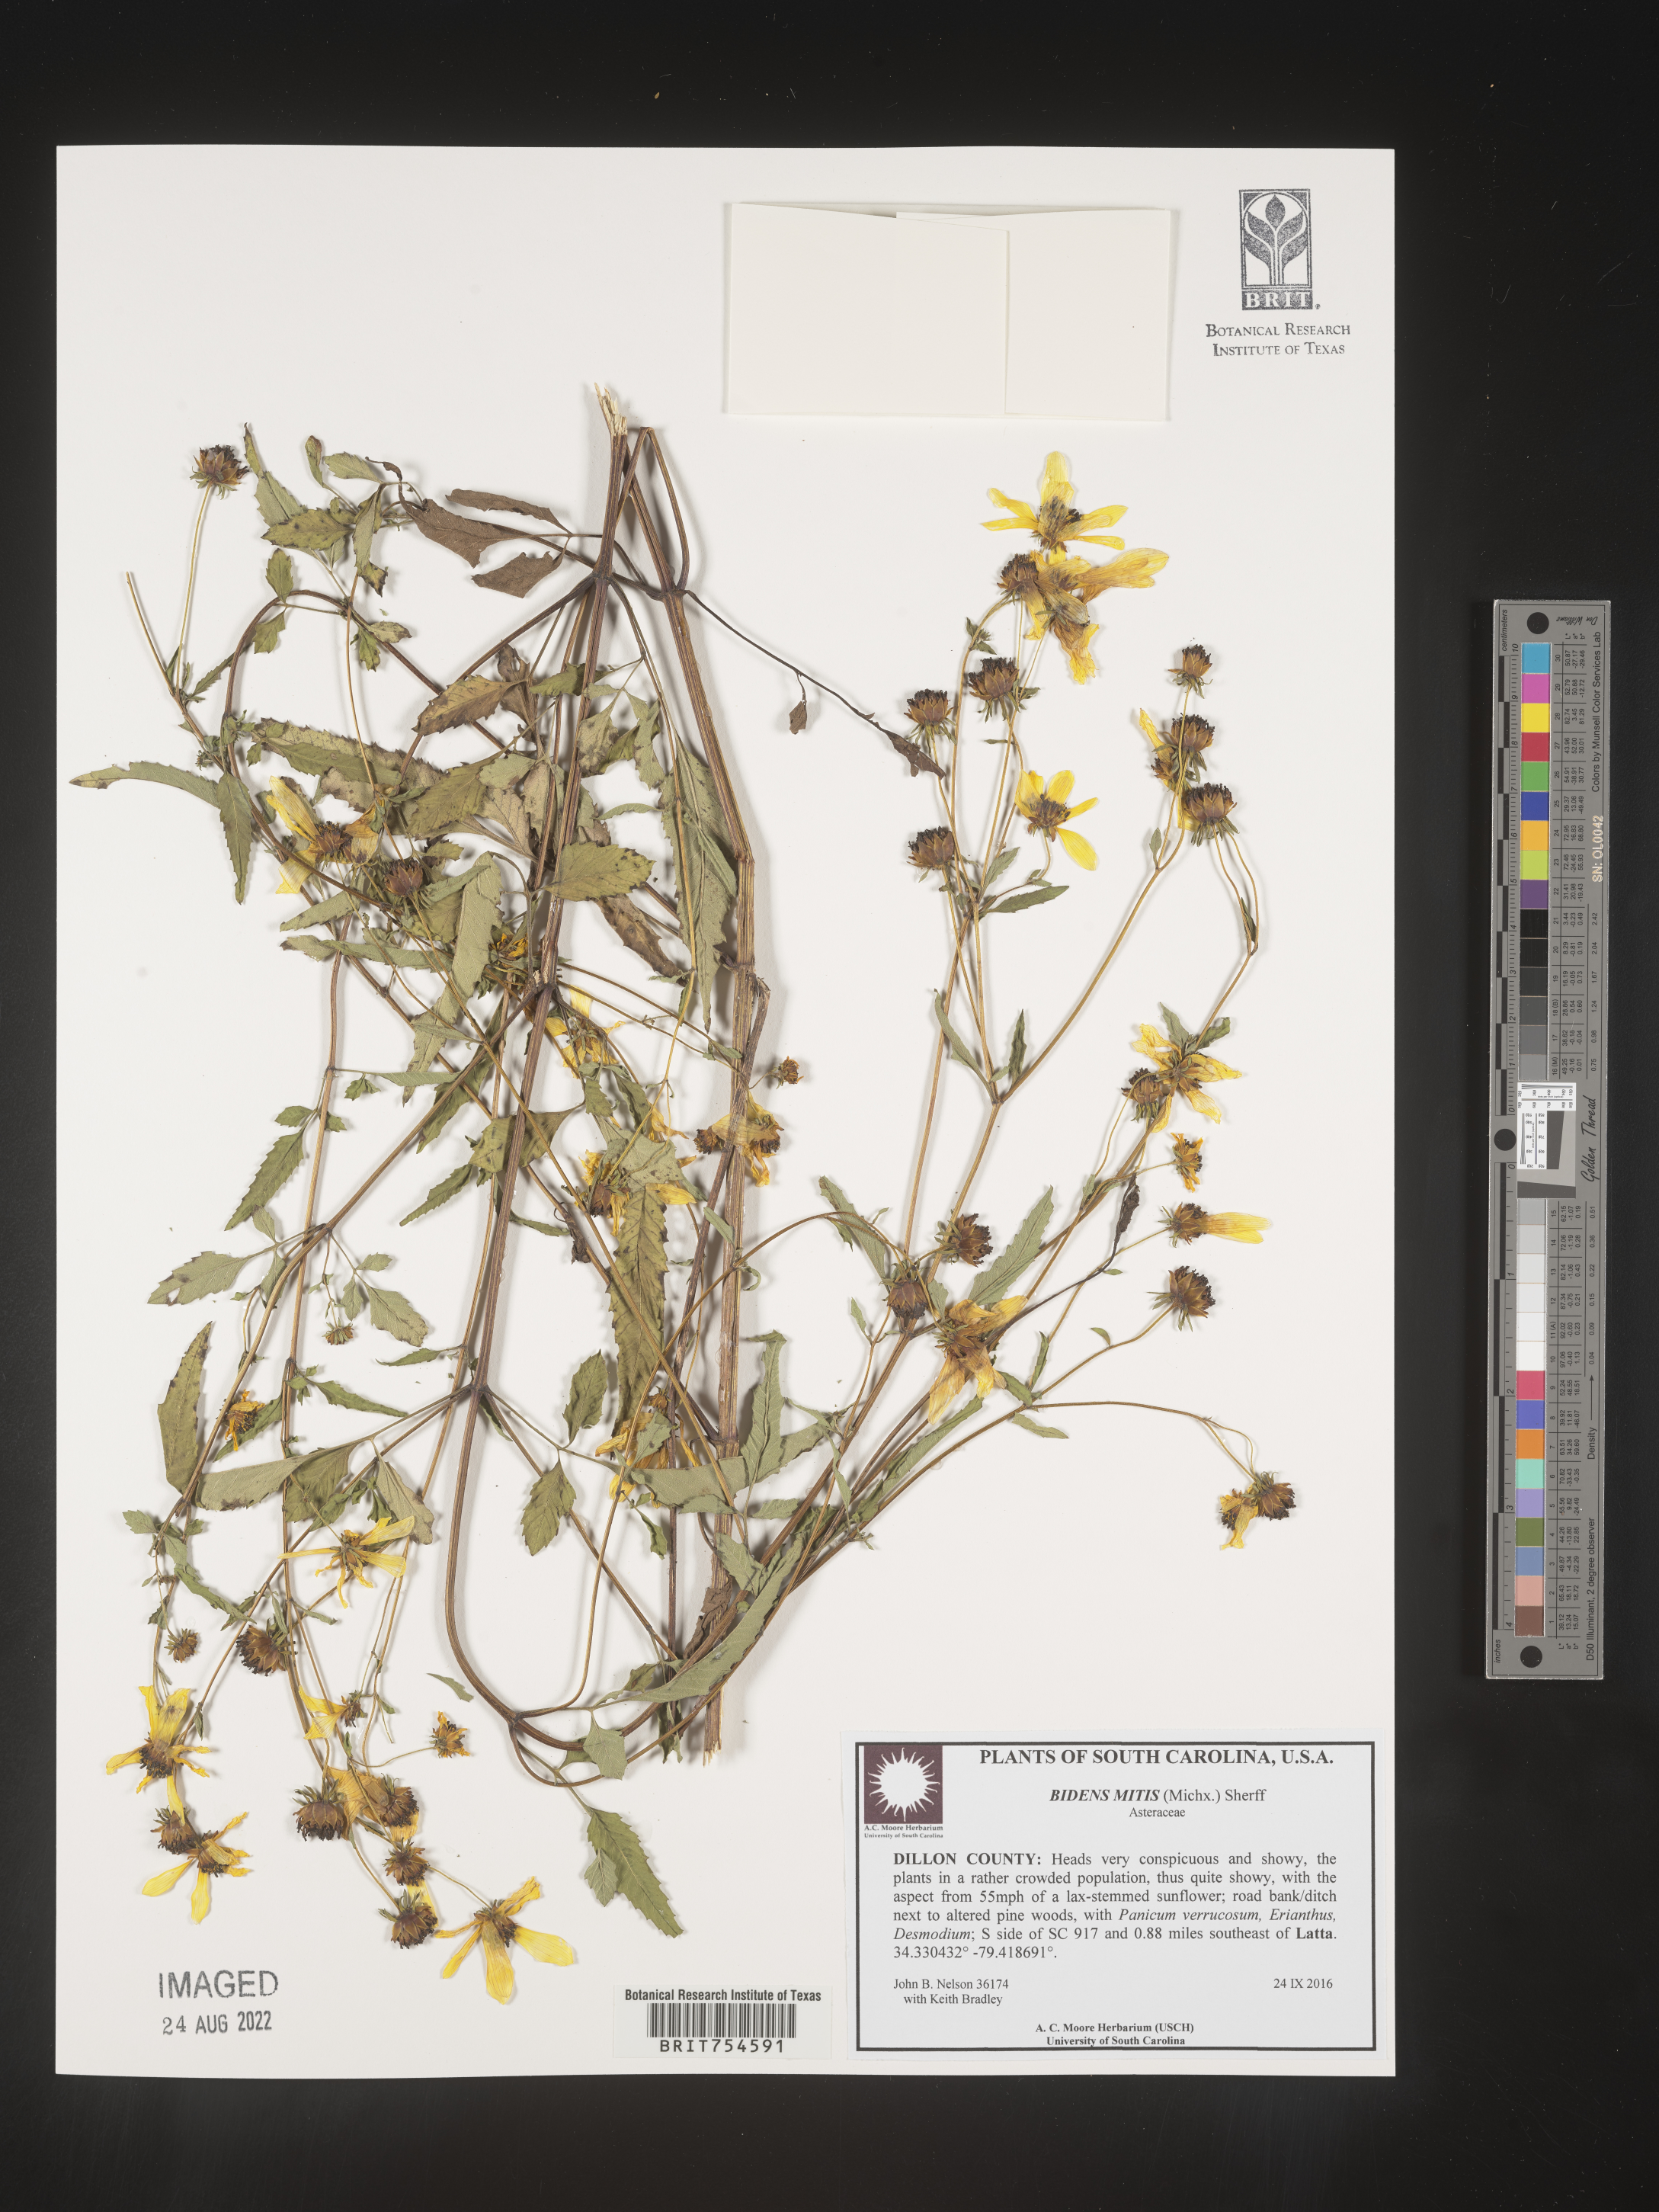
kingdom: Plantae
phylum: Tracheophyta
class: Magnoliopsida
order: Asterales
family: Asteraceae
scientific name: Asteraceae
